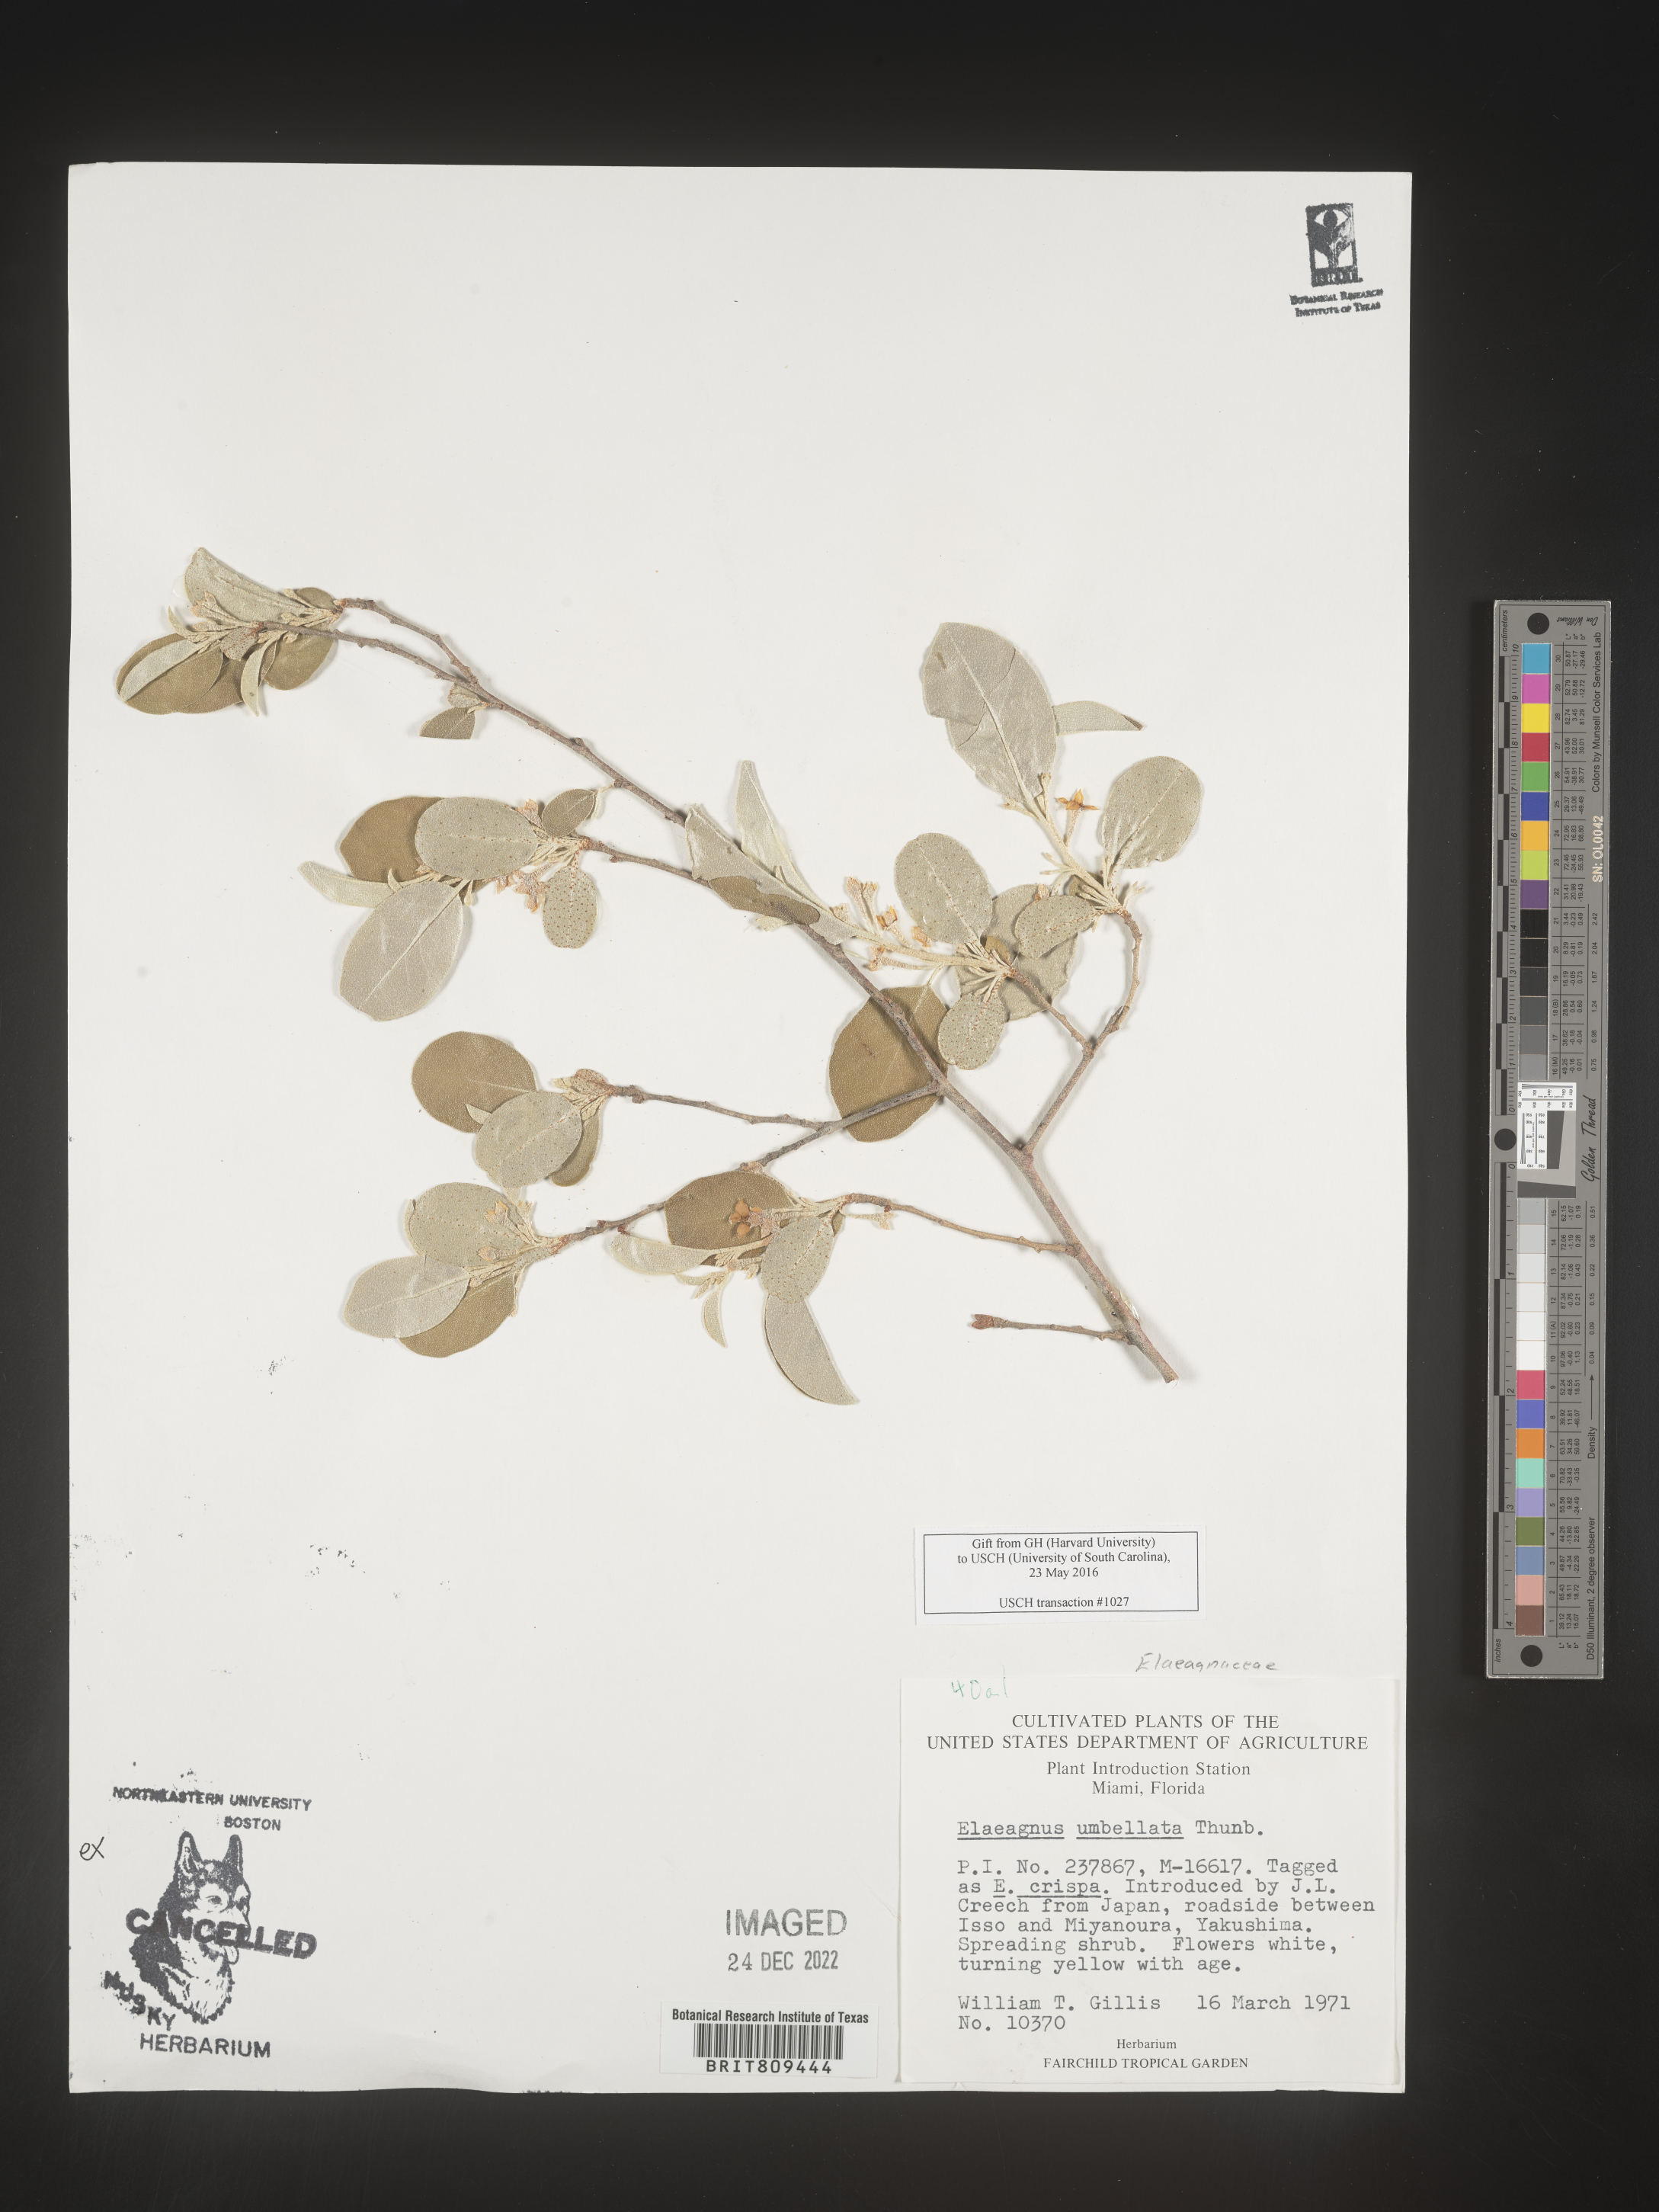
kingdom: Plantae
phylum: Tracheophyta
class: Magnoliopsida
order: Rosales
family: Elaeagnaceae
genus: Elaeagnus
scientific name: Elaeagnus
